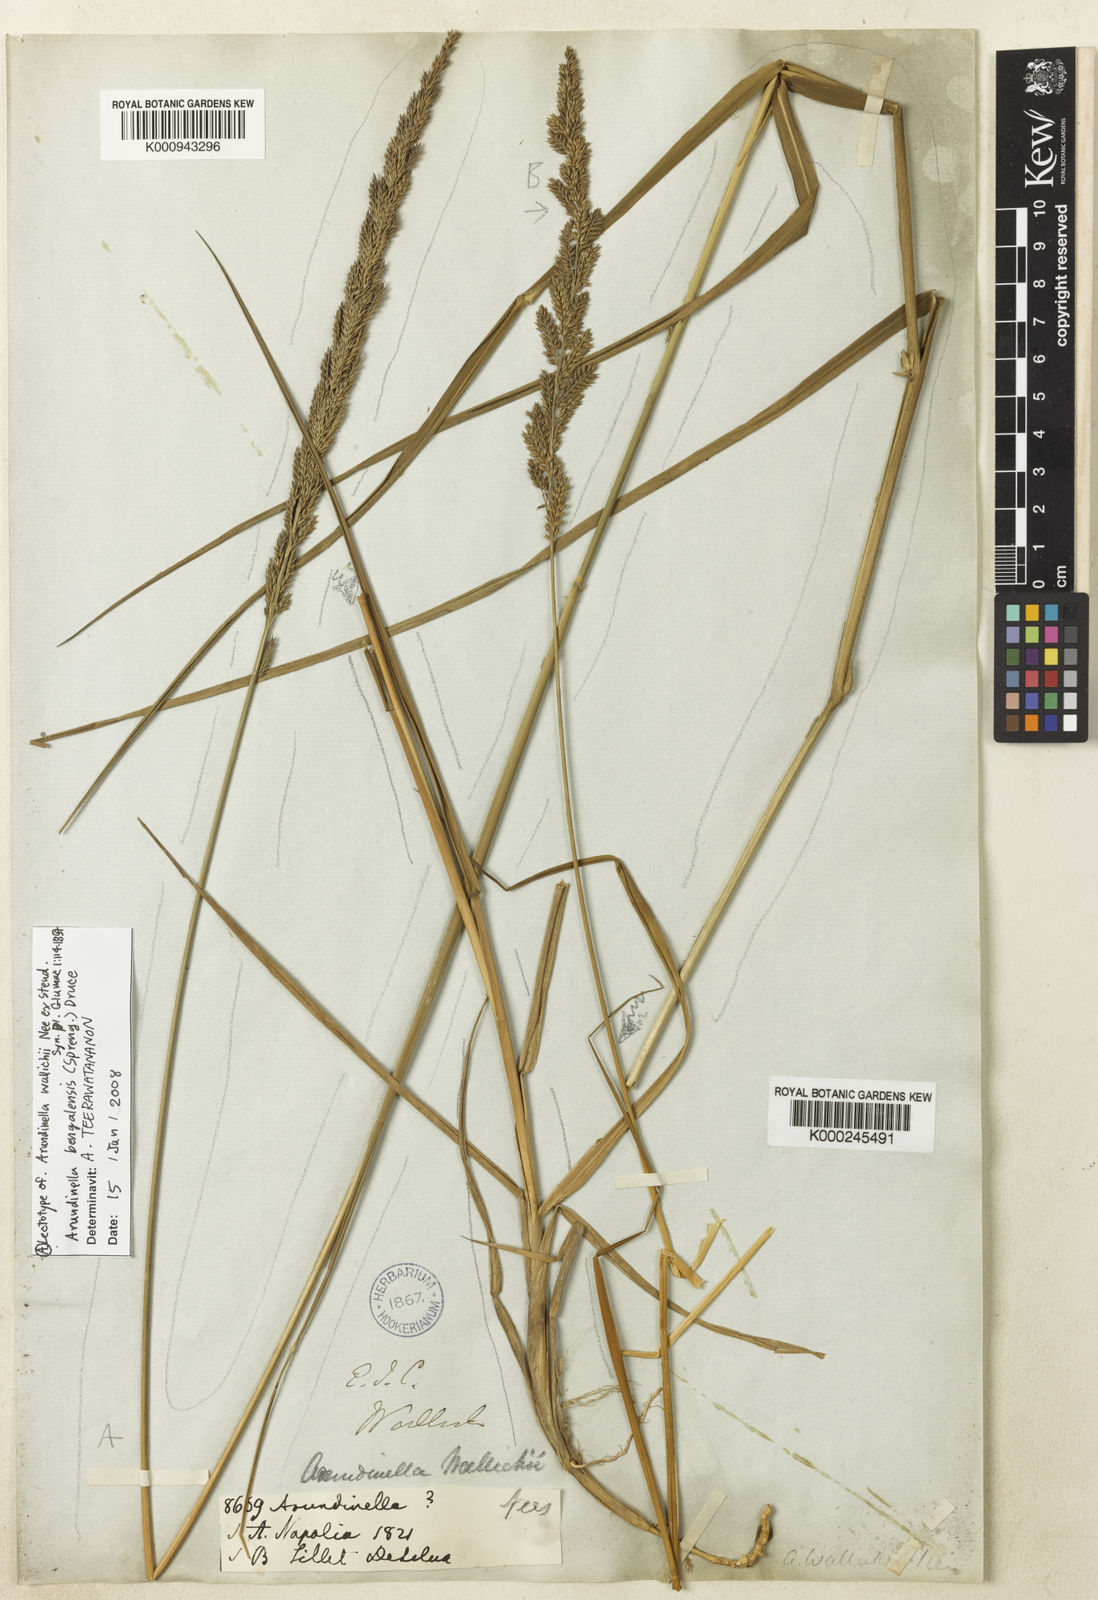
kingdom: Plantae
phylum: Tracheophyta
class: Liliopsida
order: Poales
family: Poaceae
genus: Arundinella
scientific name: Arundinella bengalensis
